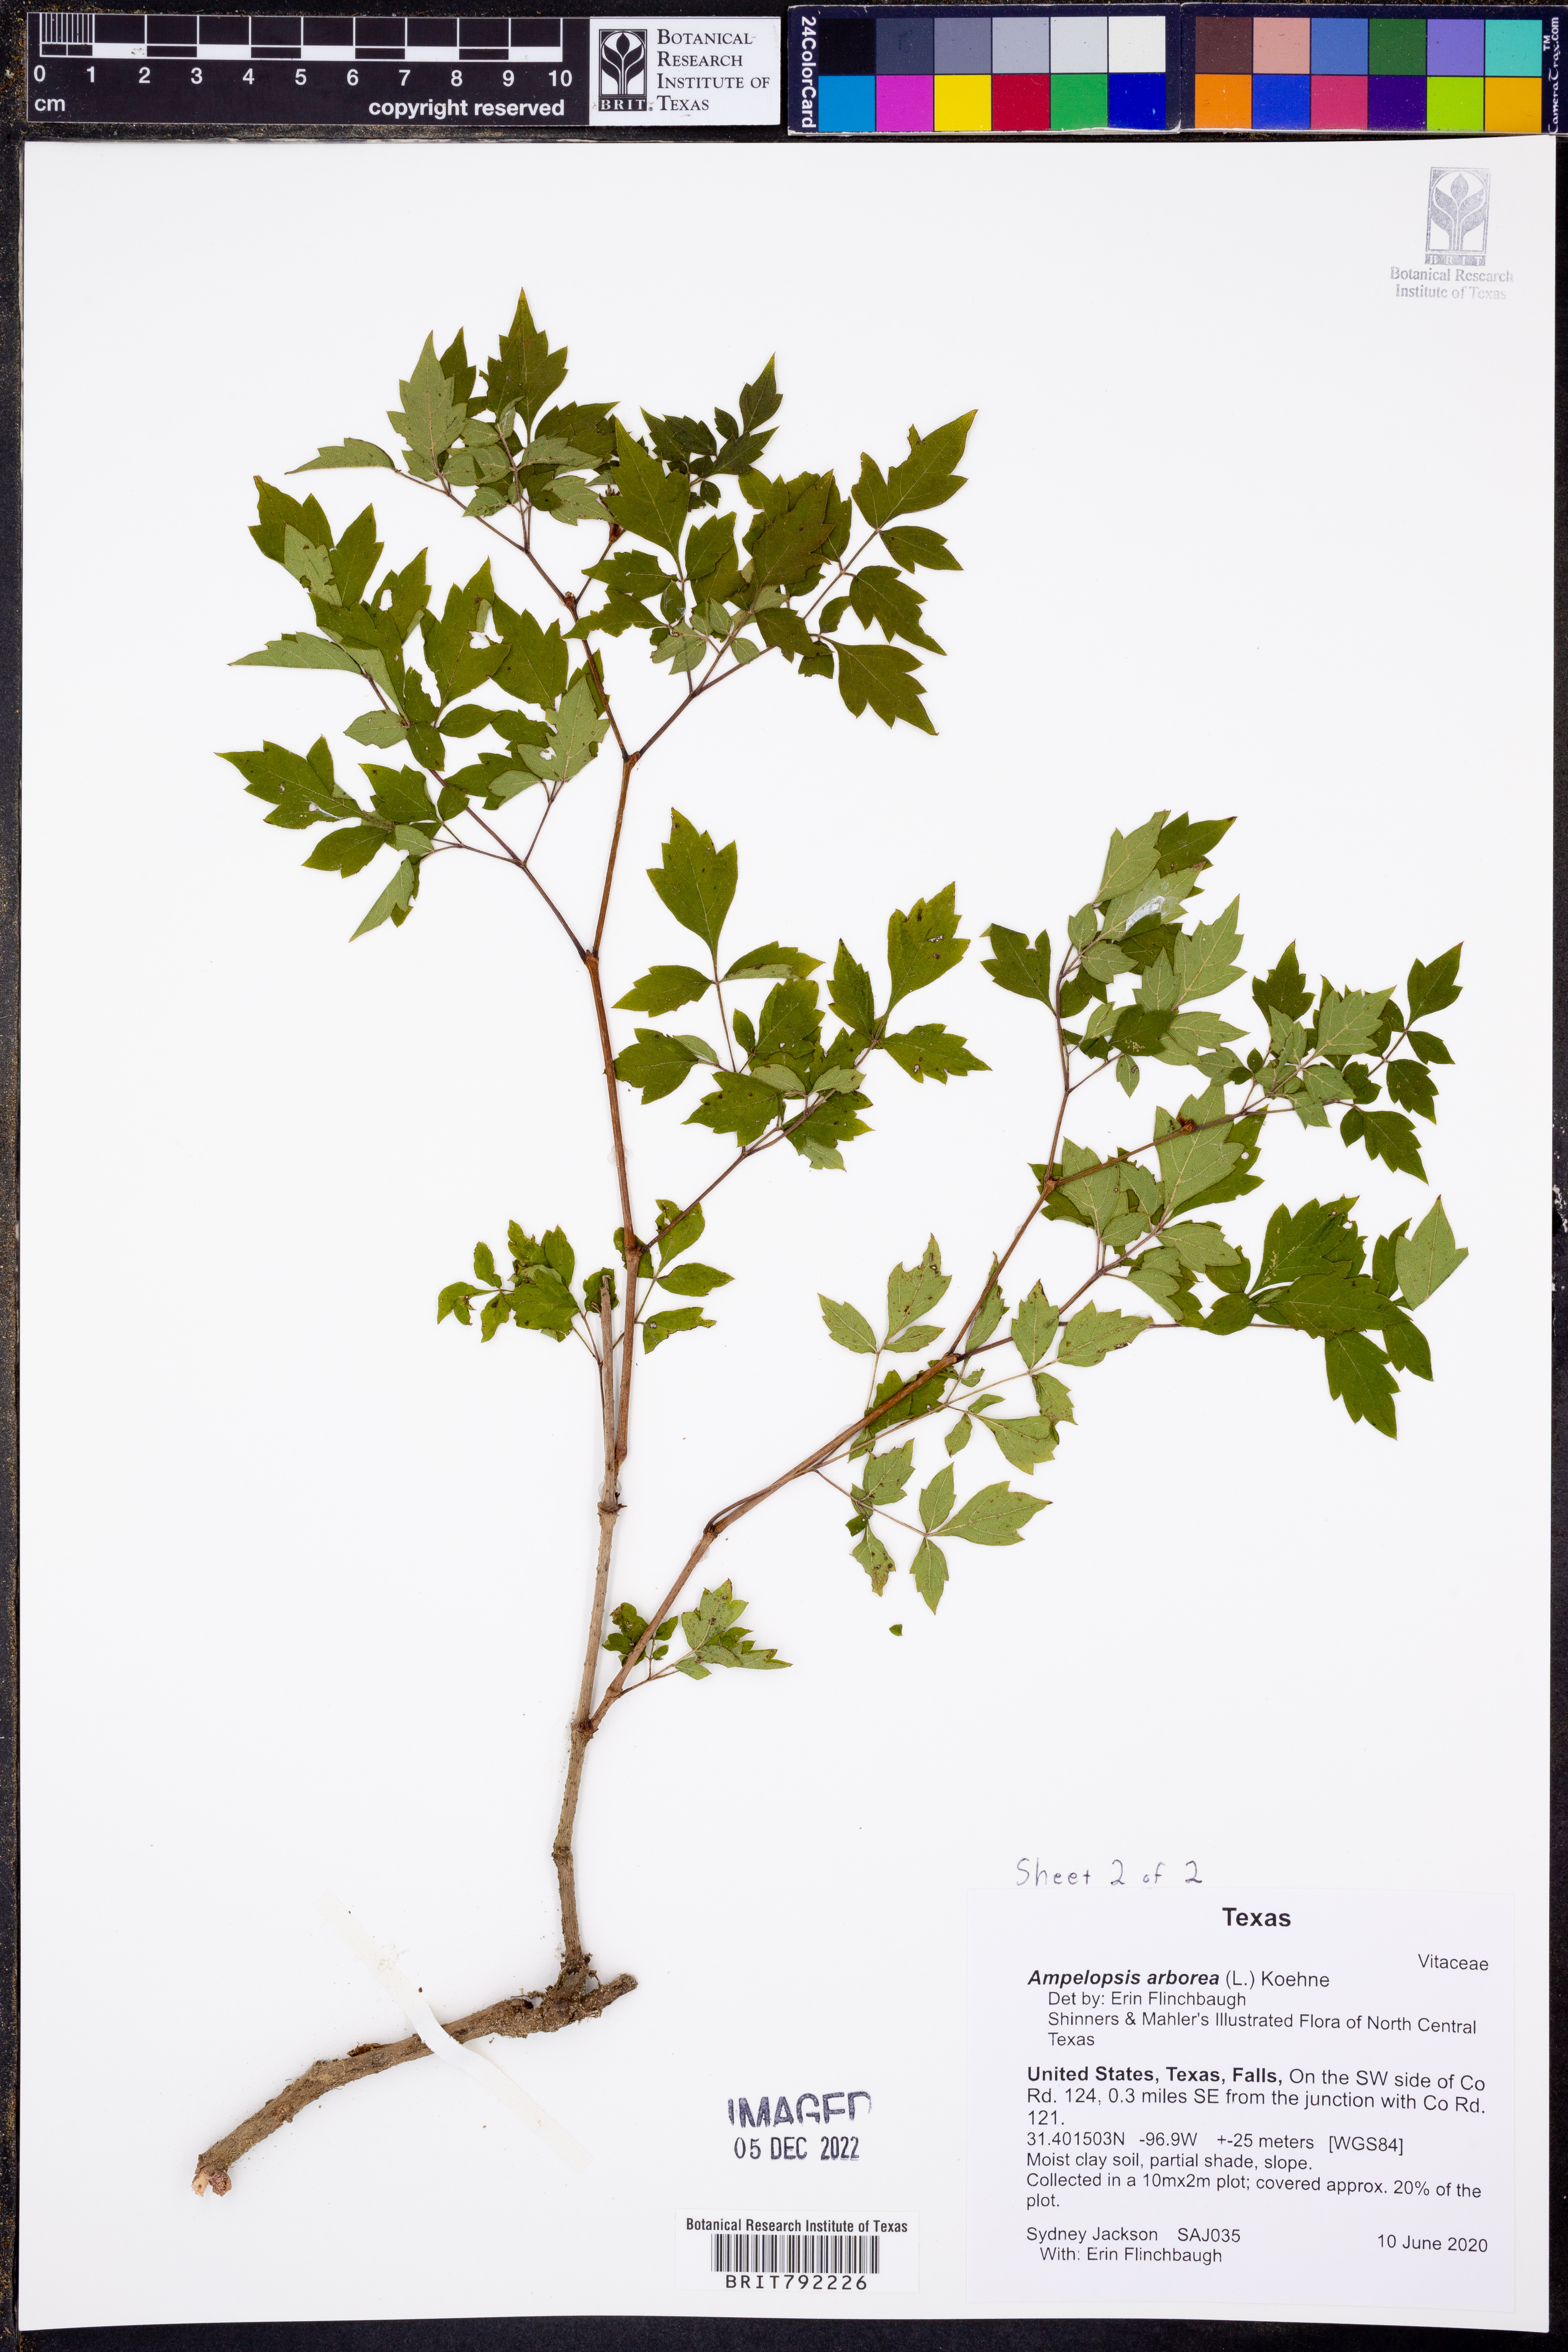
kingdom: Plantae
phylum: Tracheophyta
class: Magnoliopsida
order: Vitales
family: Vitaceae
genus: Nekemias
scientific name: Nekemias arborea
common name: Peppervine
